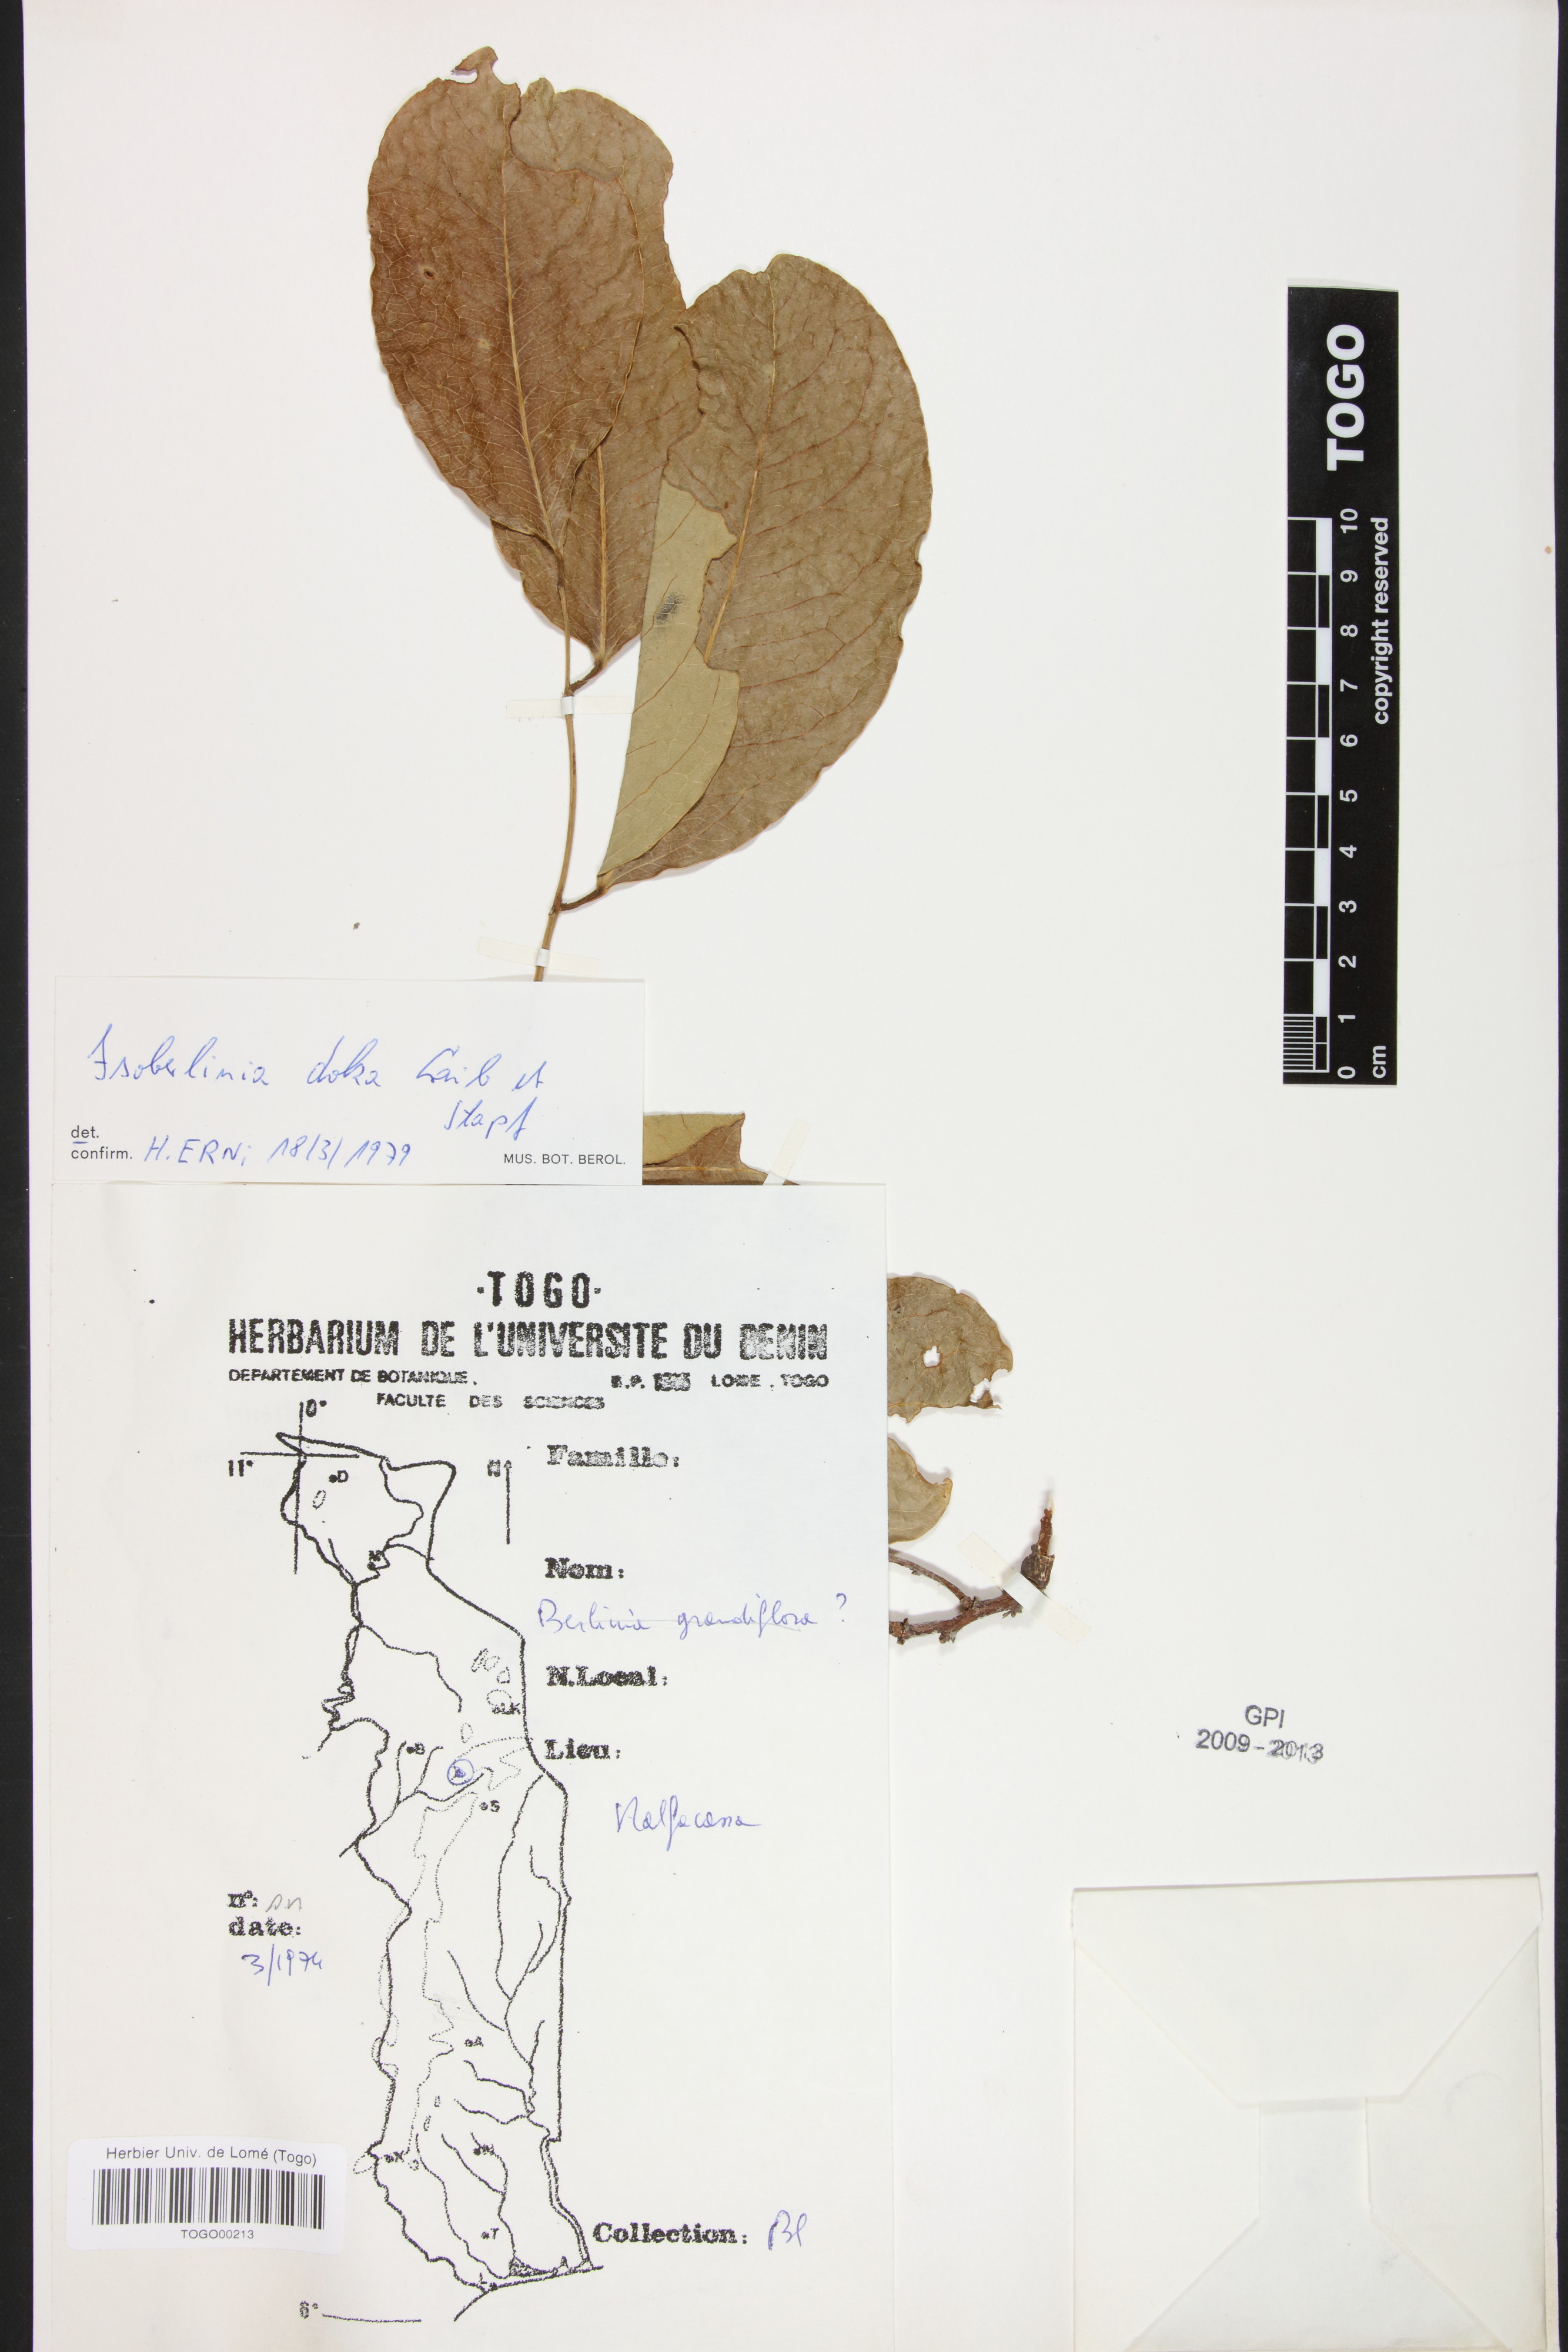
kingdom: Plantae
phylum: Tracheophyta
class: Magnoliopsida
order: Fabales
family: Fabaceae
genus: Isoberlinia
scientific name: Isoberlinia doka
